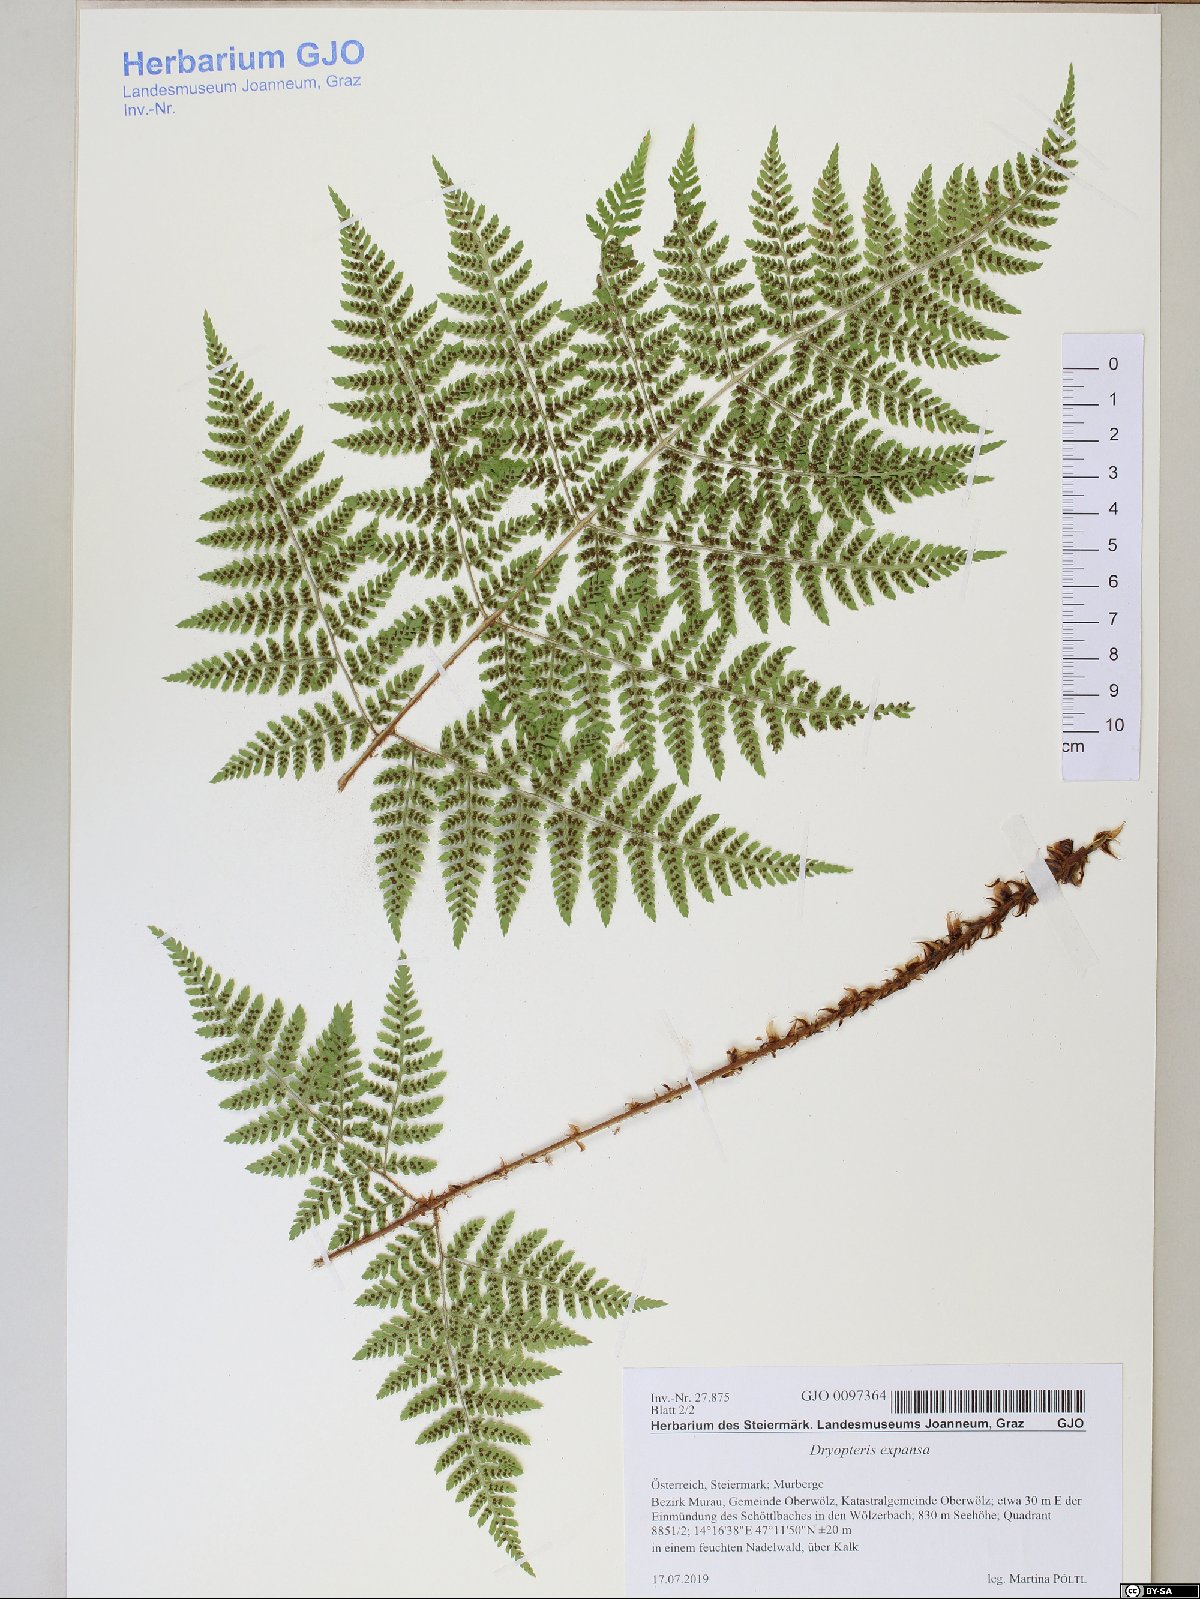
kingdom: Plantae
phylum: Tracheophyta
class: Polypodiopsida
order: Polypodiales
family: Dryopteridaceae
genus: Dryopteris
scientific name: Dryopteris expansa
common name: Northern buckler fern
